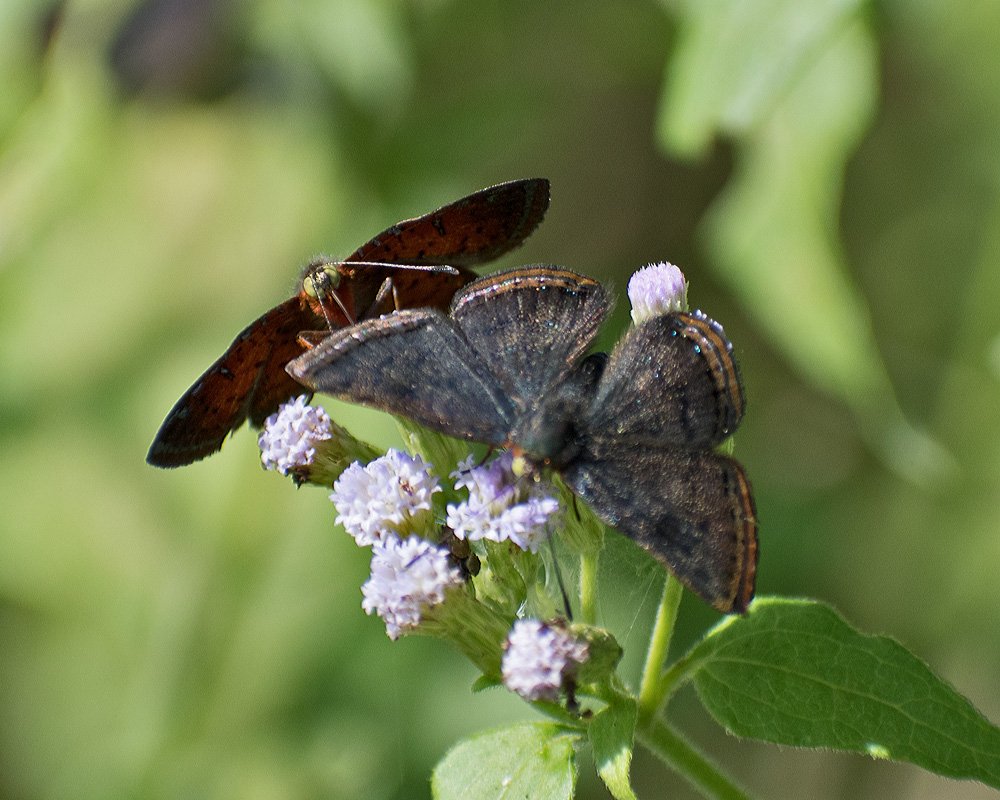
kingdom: Animalia
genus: Caria
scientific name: Caria ino
